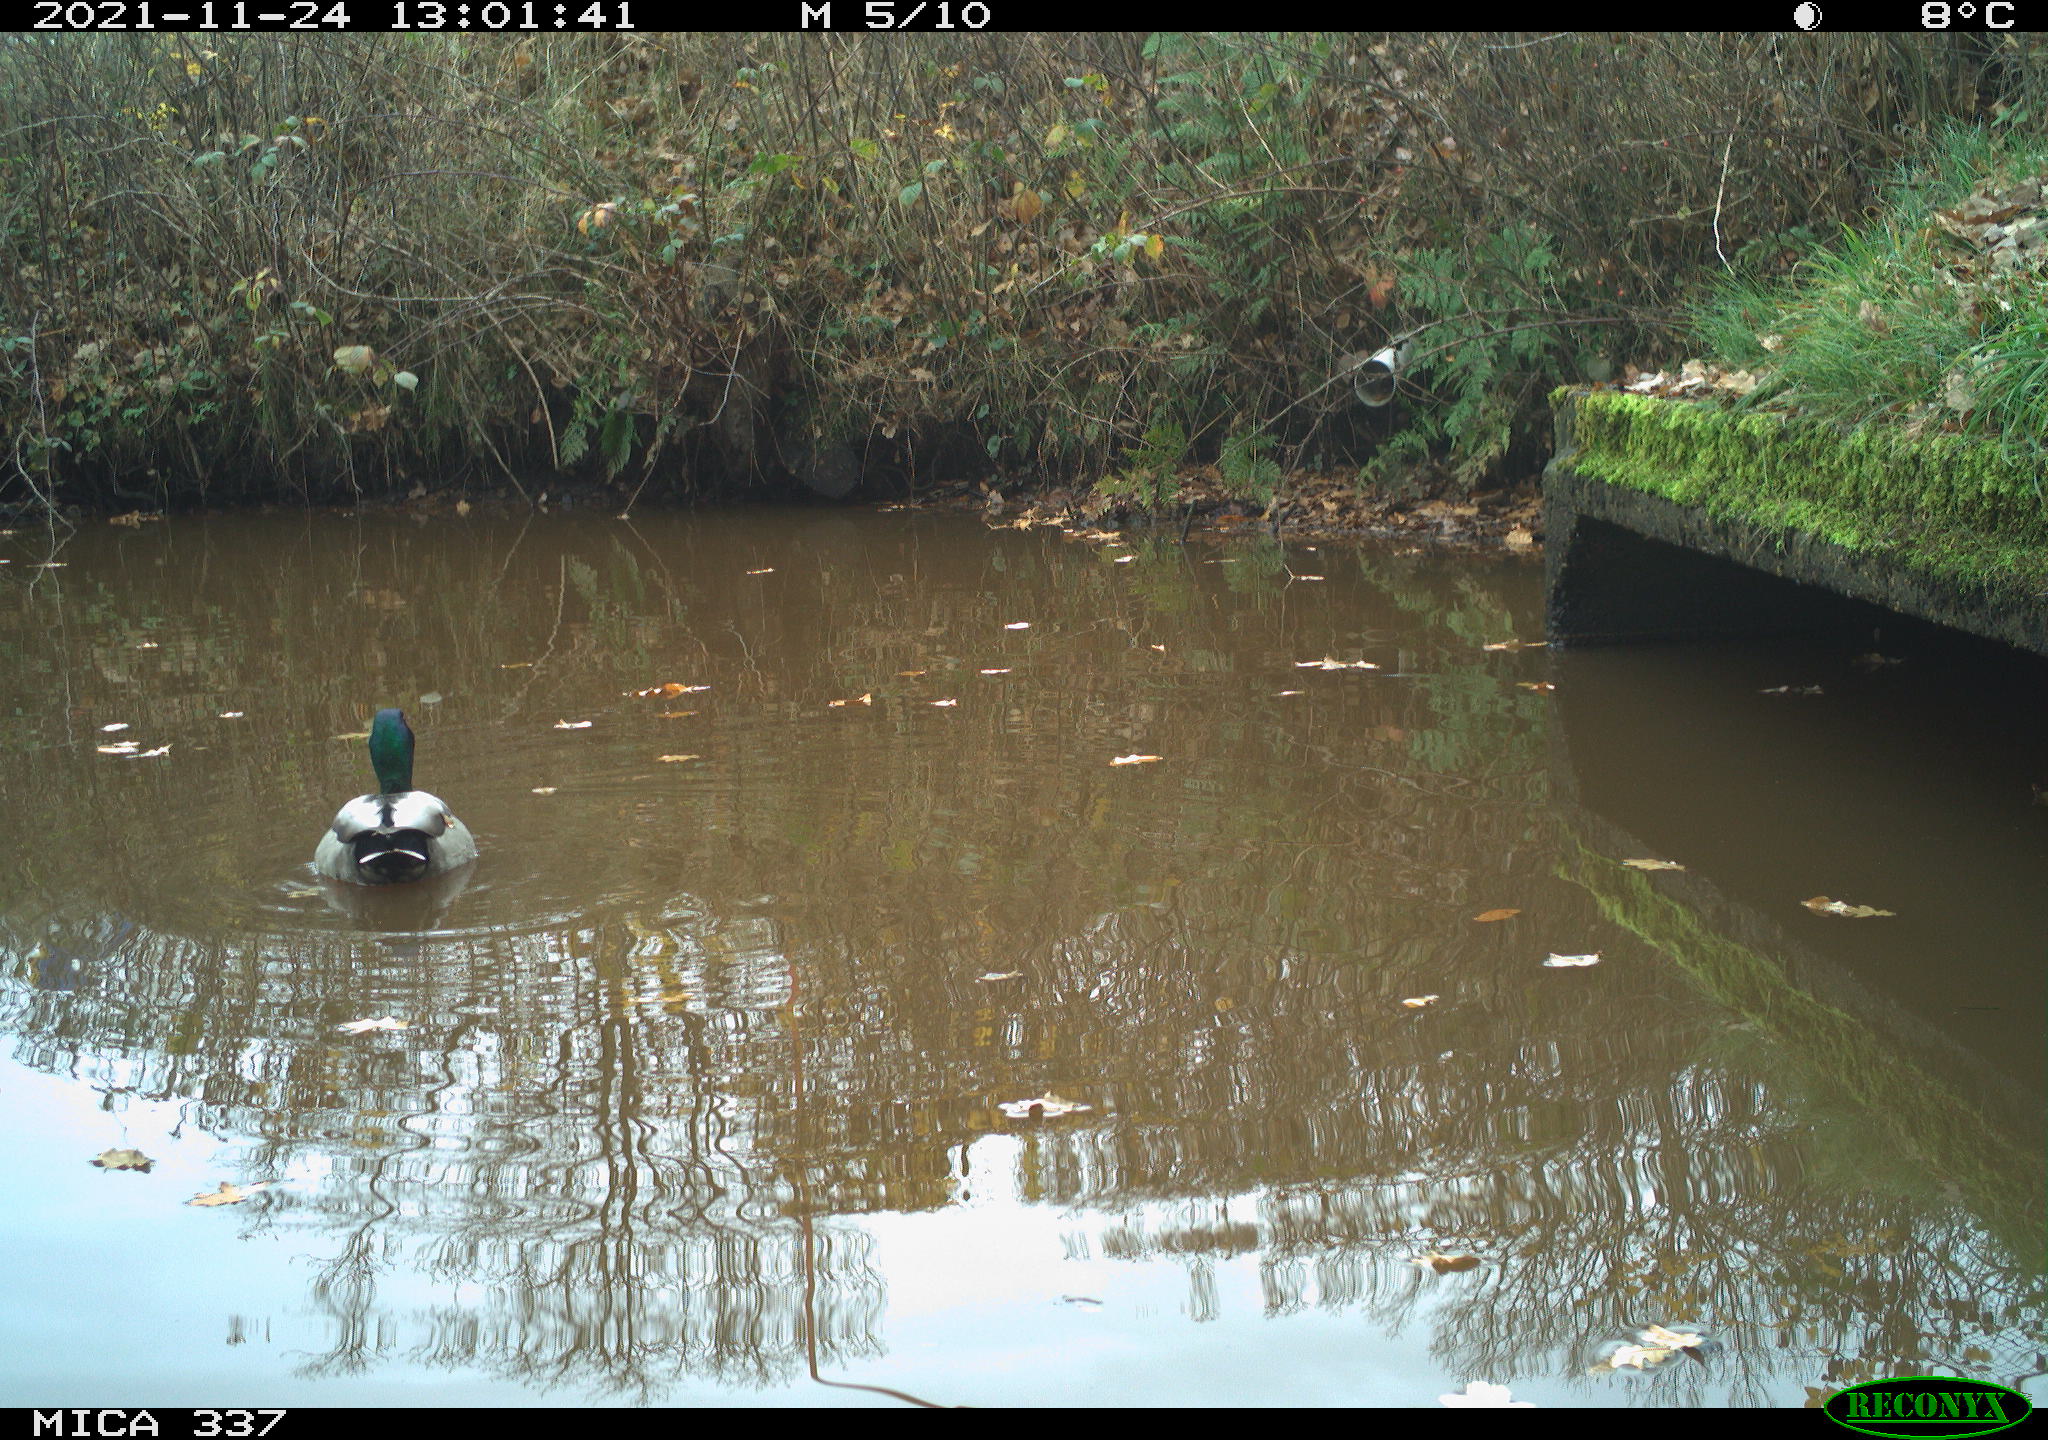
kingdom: Animalia
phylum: Chordata
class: Aves
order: Anseriformes
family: Anatidae
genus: Anas
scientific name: Anas platyrhynchos
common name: Mallard
